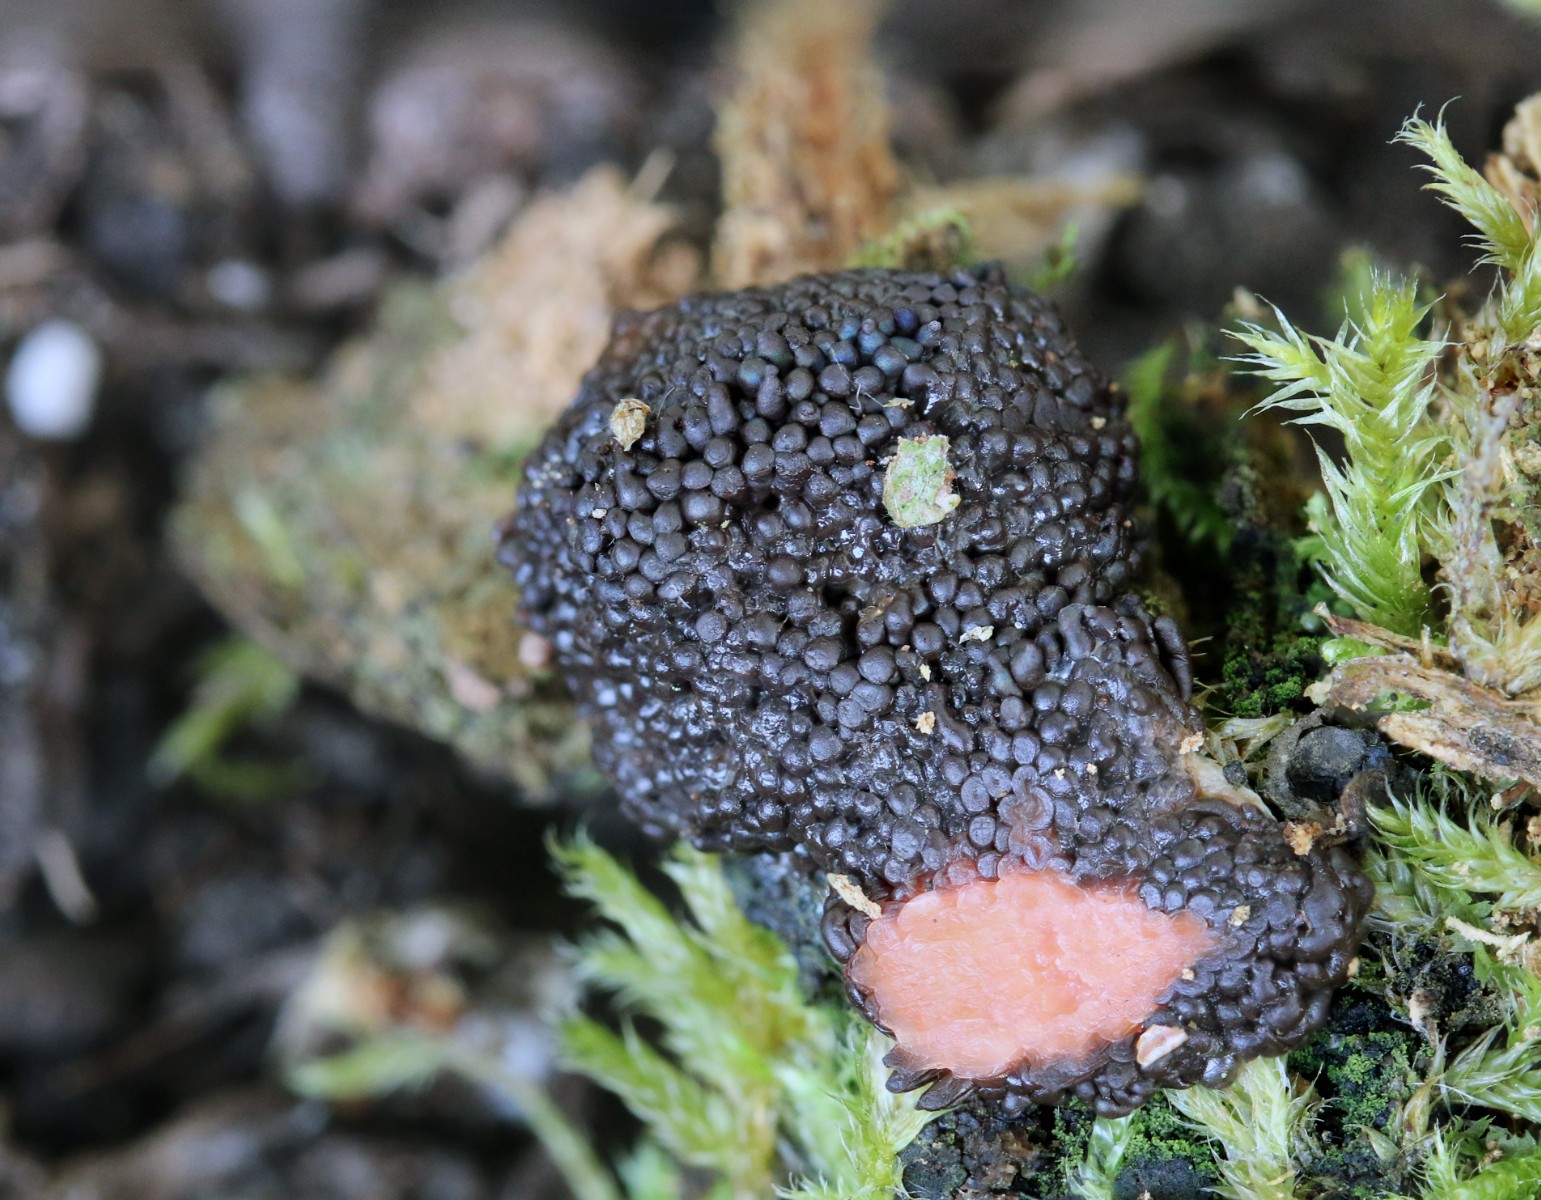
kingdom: Protozoa
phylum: Mycetozoa
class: Myxomycetes
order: Cribrariales
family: Tubiferaceae
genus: Tubifera
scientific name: Tubifera ferruginosa
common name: kanel-støvrør
